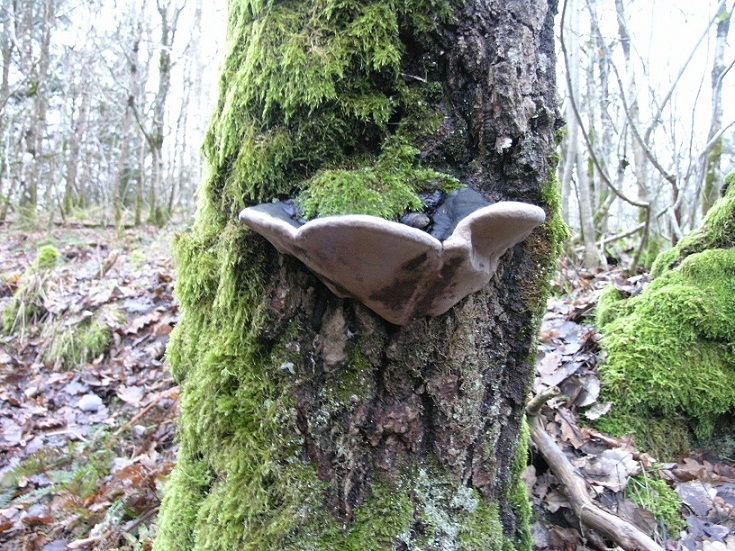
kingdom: Fungi
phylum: Basidiomycota
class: Agaricomycetes
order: Hymenochaetales
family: Hymenochaetaceae
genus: Phellinus
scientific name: Phellinus populicola
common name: poppel-ildporesvamp
